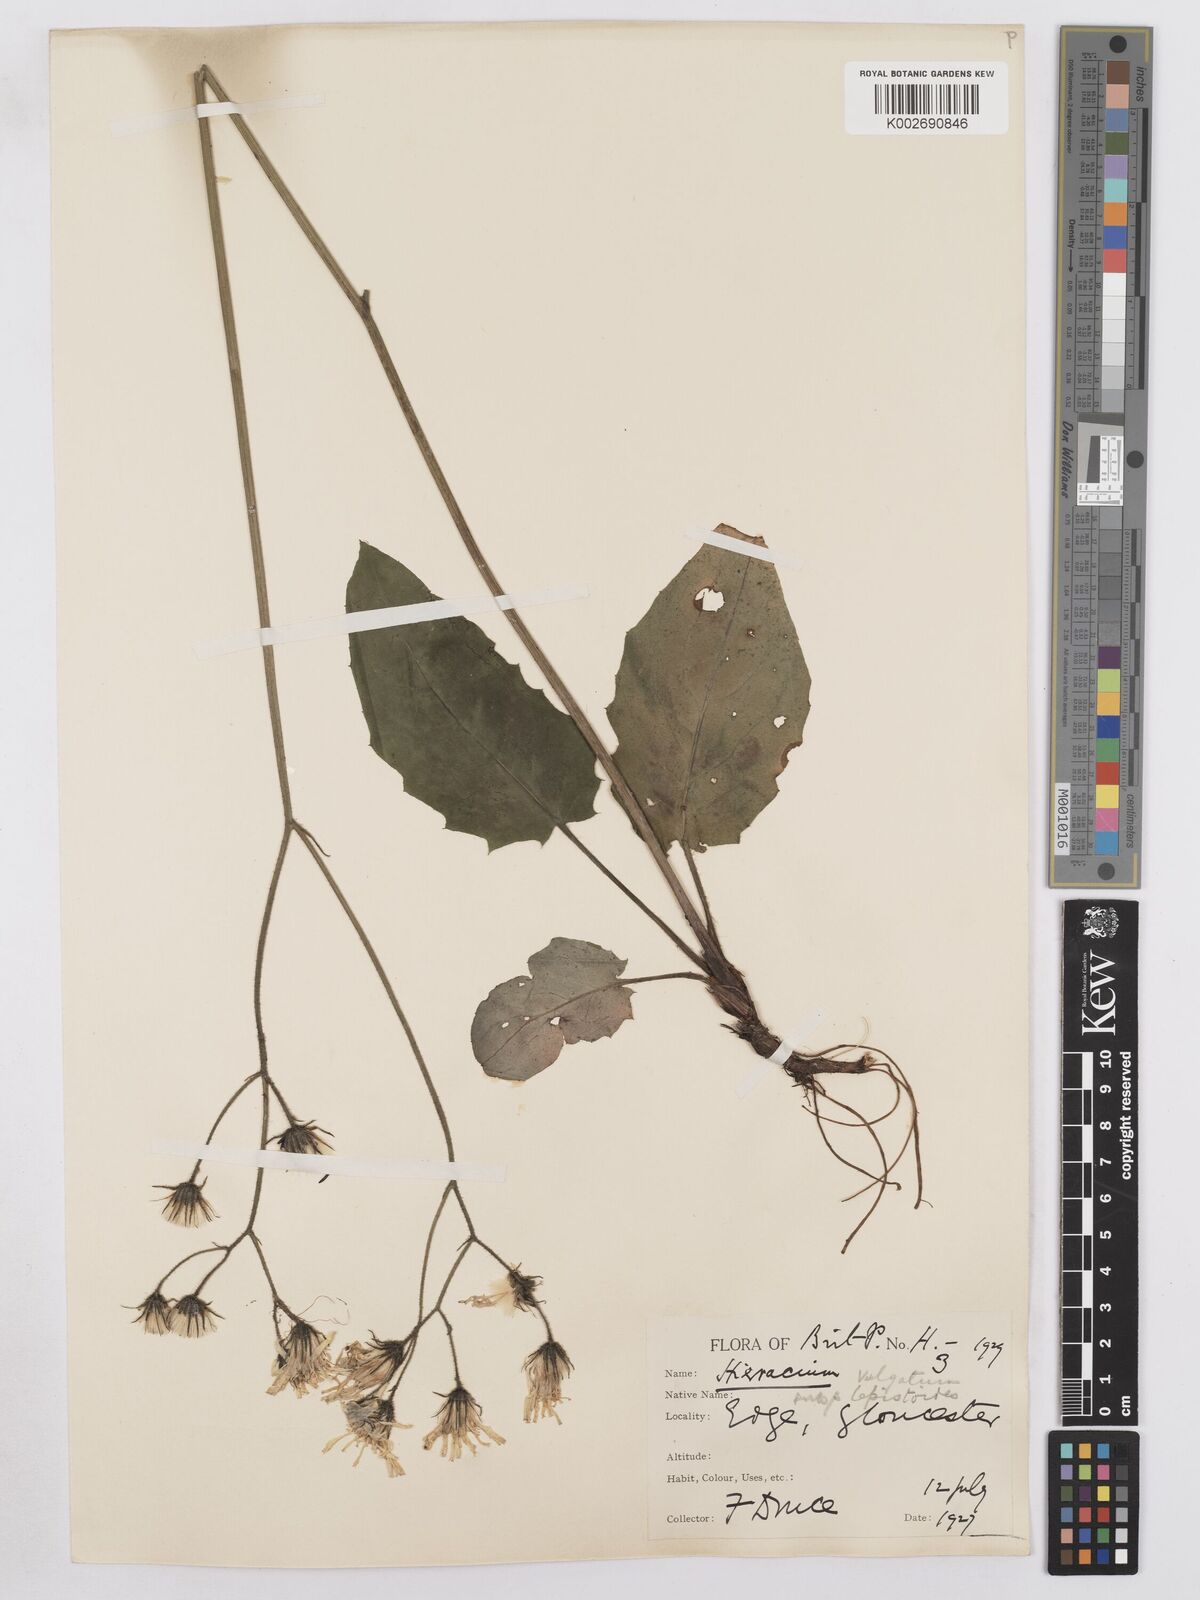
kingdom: Plantae
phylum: Tracheophyta
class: Magnoliopsida
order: Asterales
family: Asteraceae
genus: Hieracium
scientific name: Hieracium murorum
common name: Wall hawkweed
